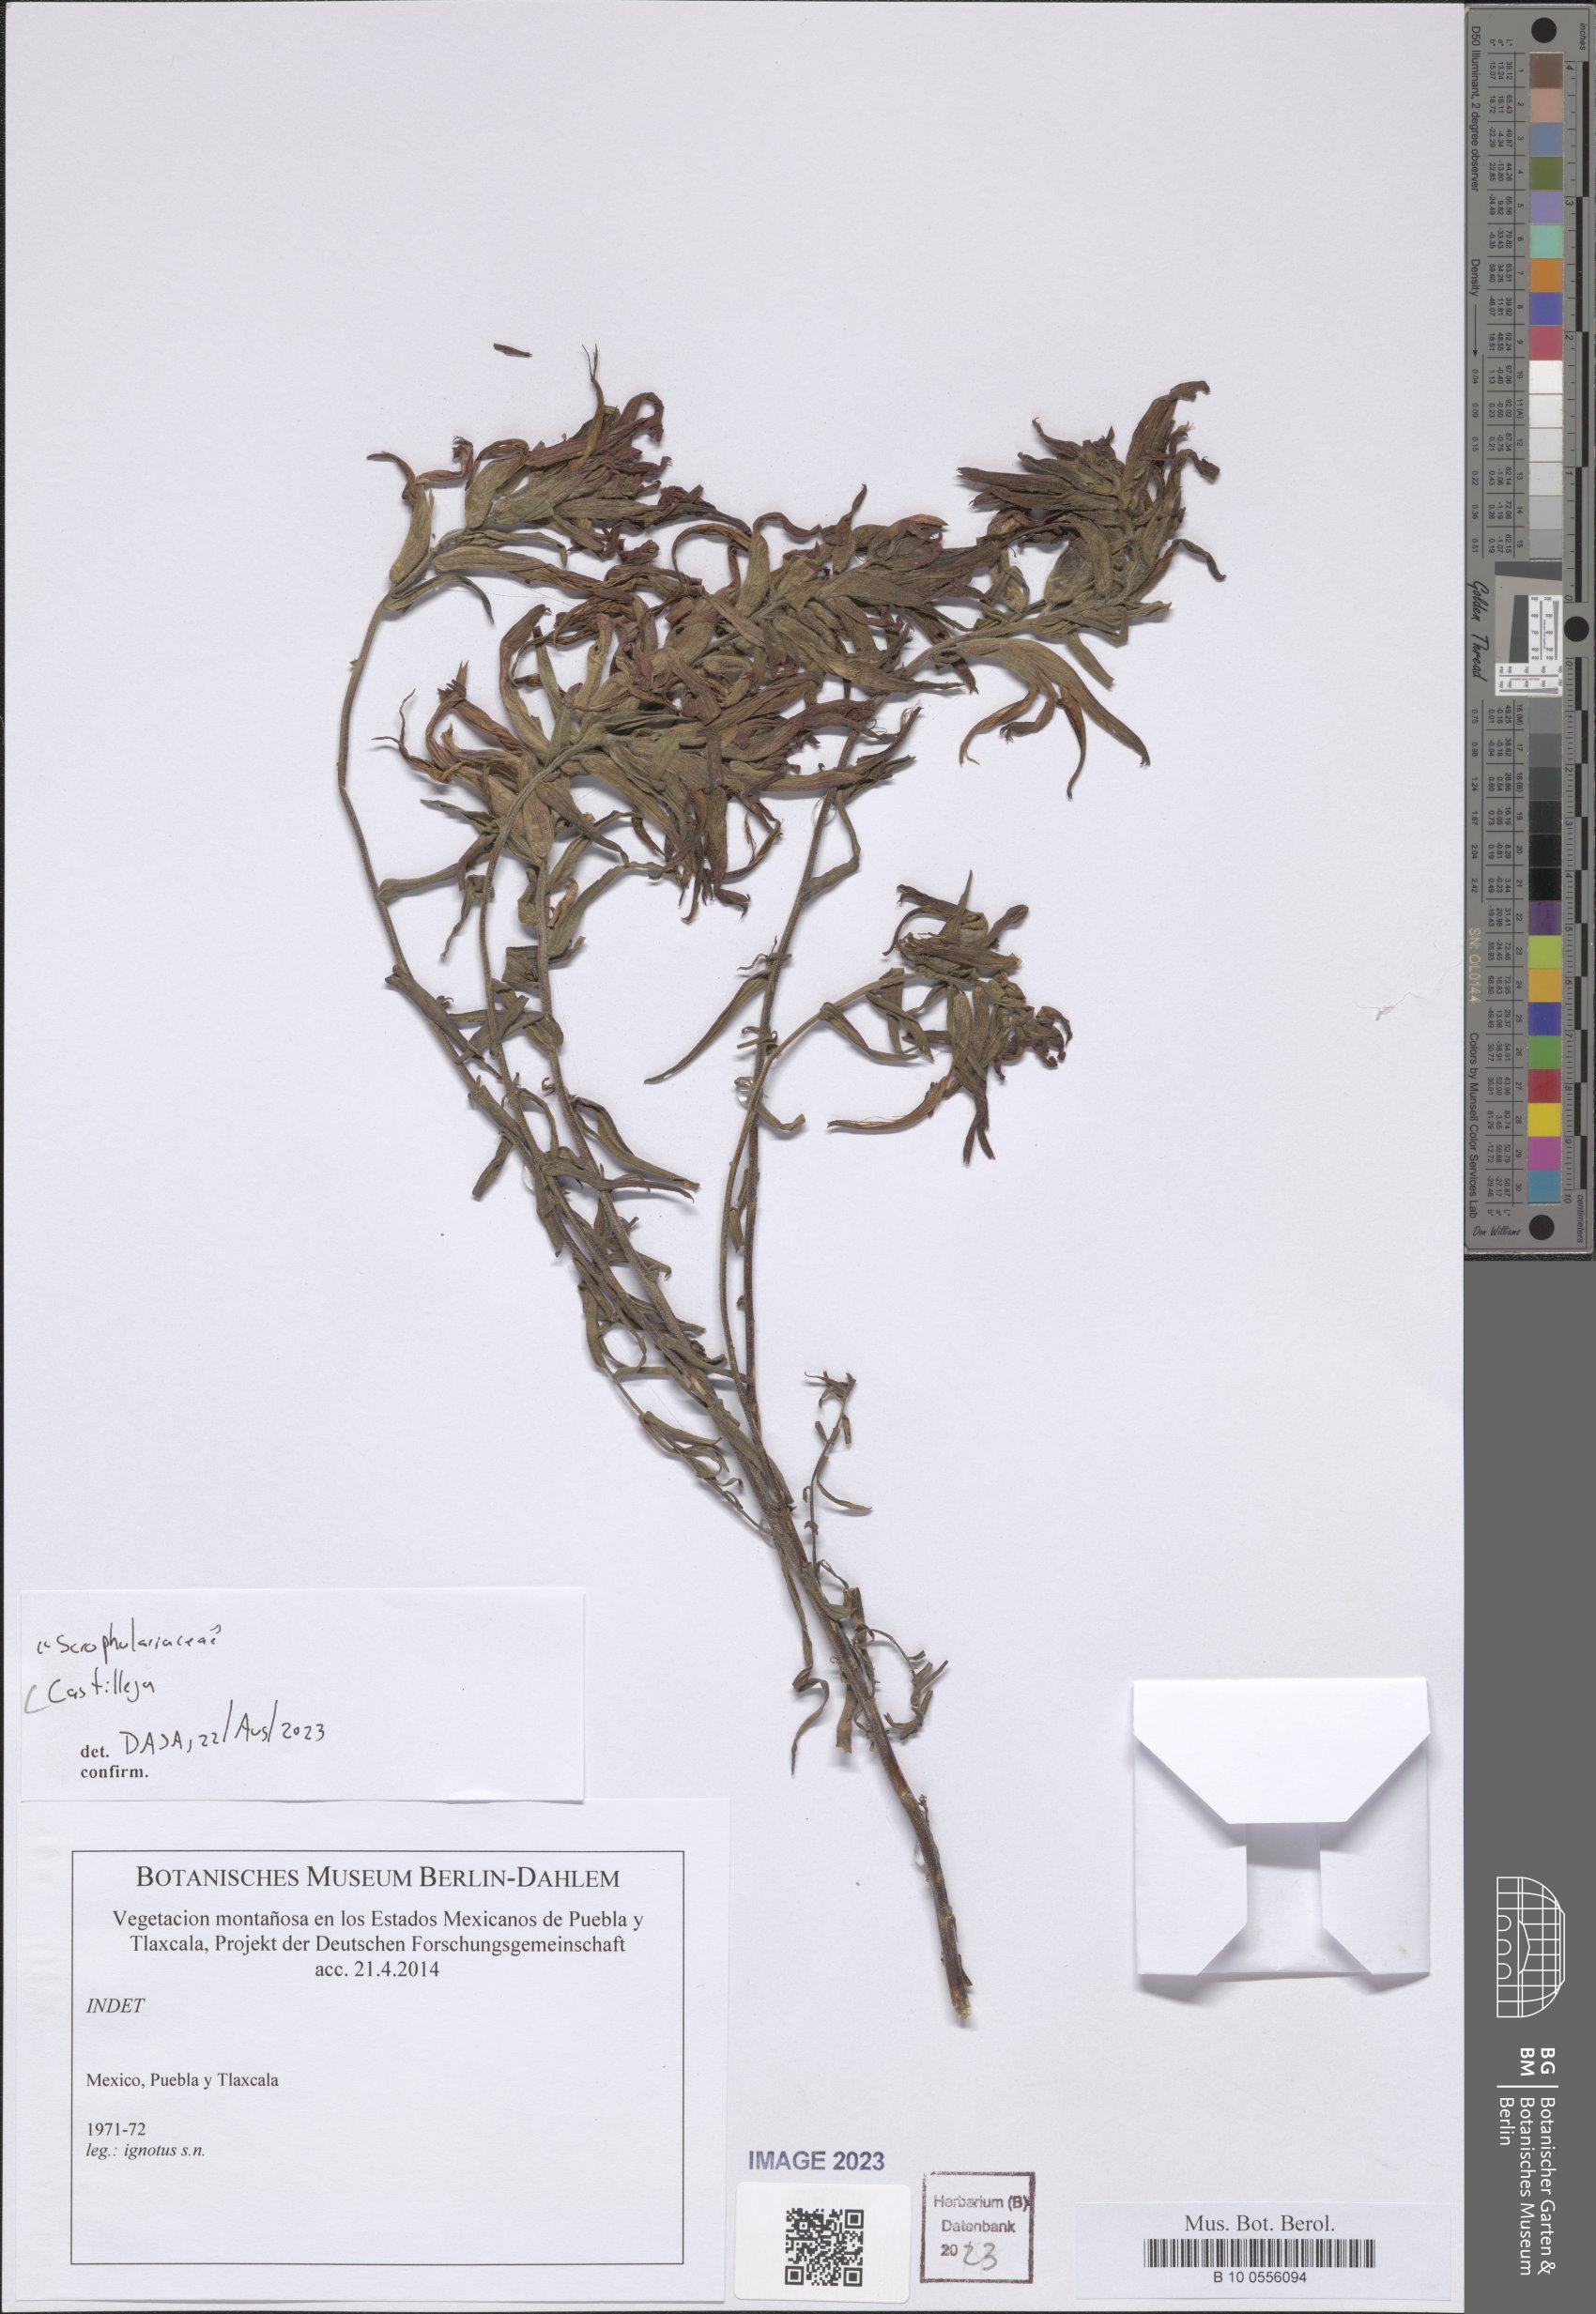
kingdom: Plantae
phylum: Tracheophyta
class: Magnoliopsida
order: Lamiales
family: Orobanchaceae
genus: Castilleja
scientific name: Castilleja
